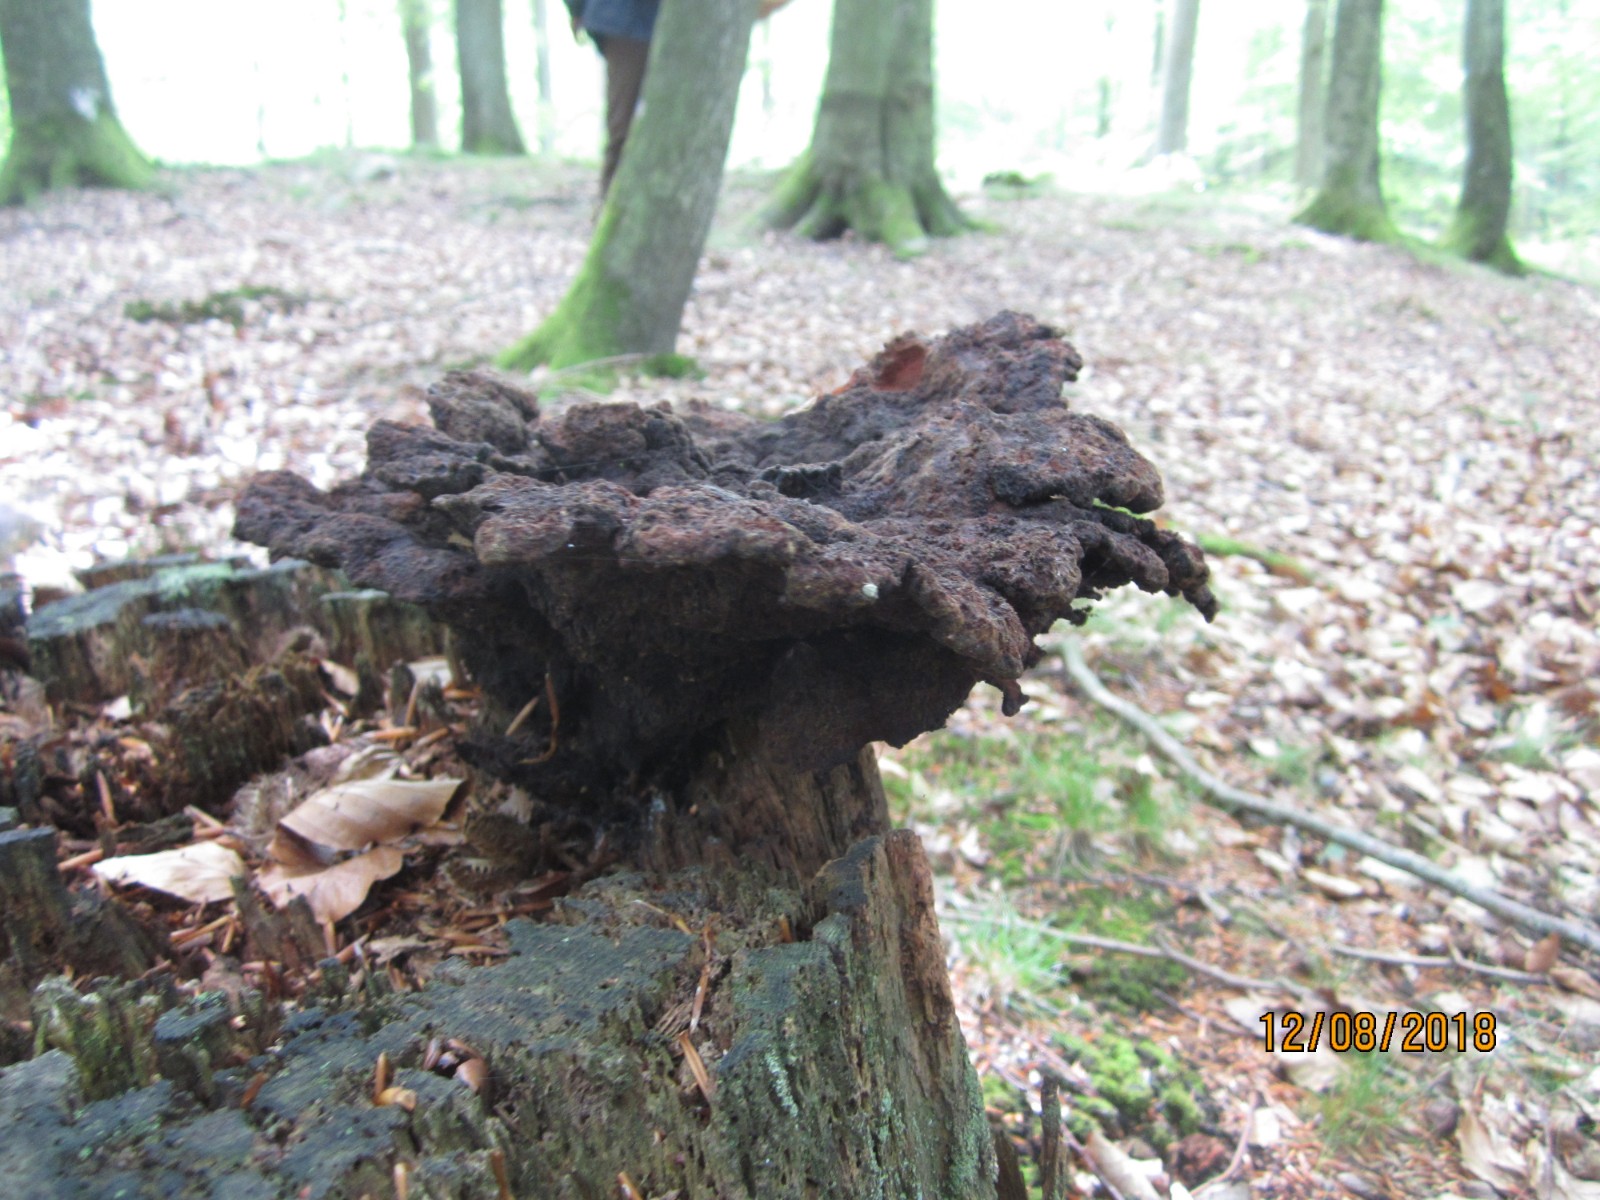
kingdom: Fungi
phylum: Basidiomycota
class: Agaricomycetes
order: Polyporales
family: Laetiporaceae
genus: Phaeolus
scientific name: Phaeolus schweinitzii
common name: brunporesvamp
